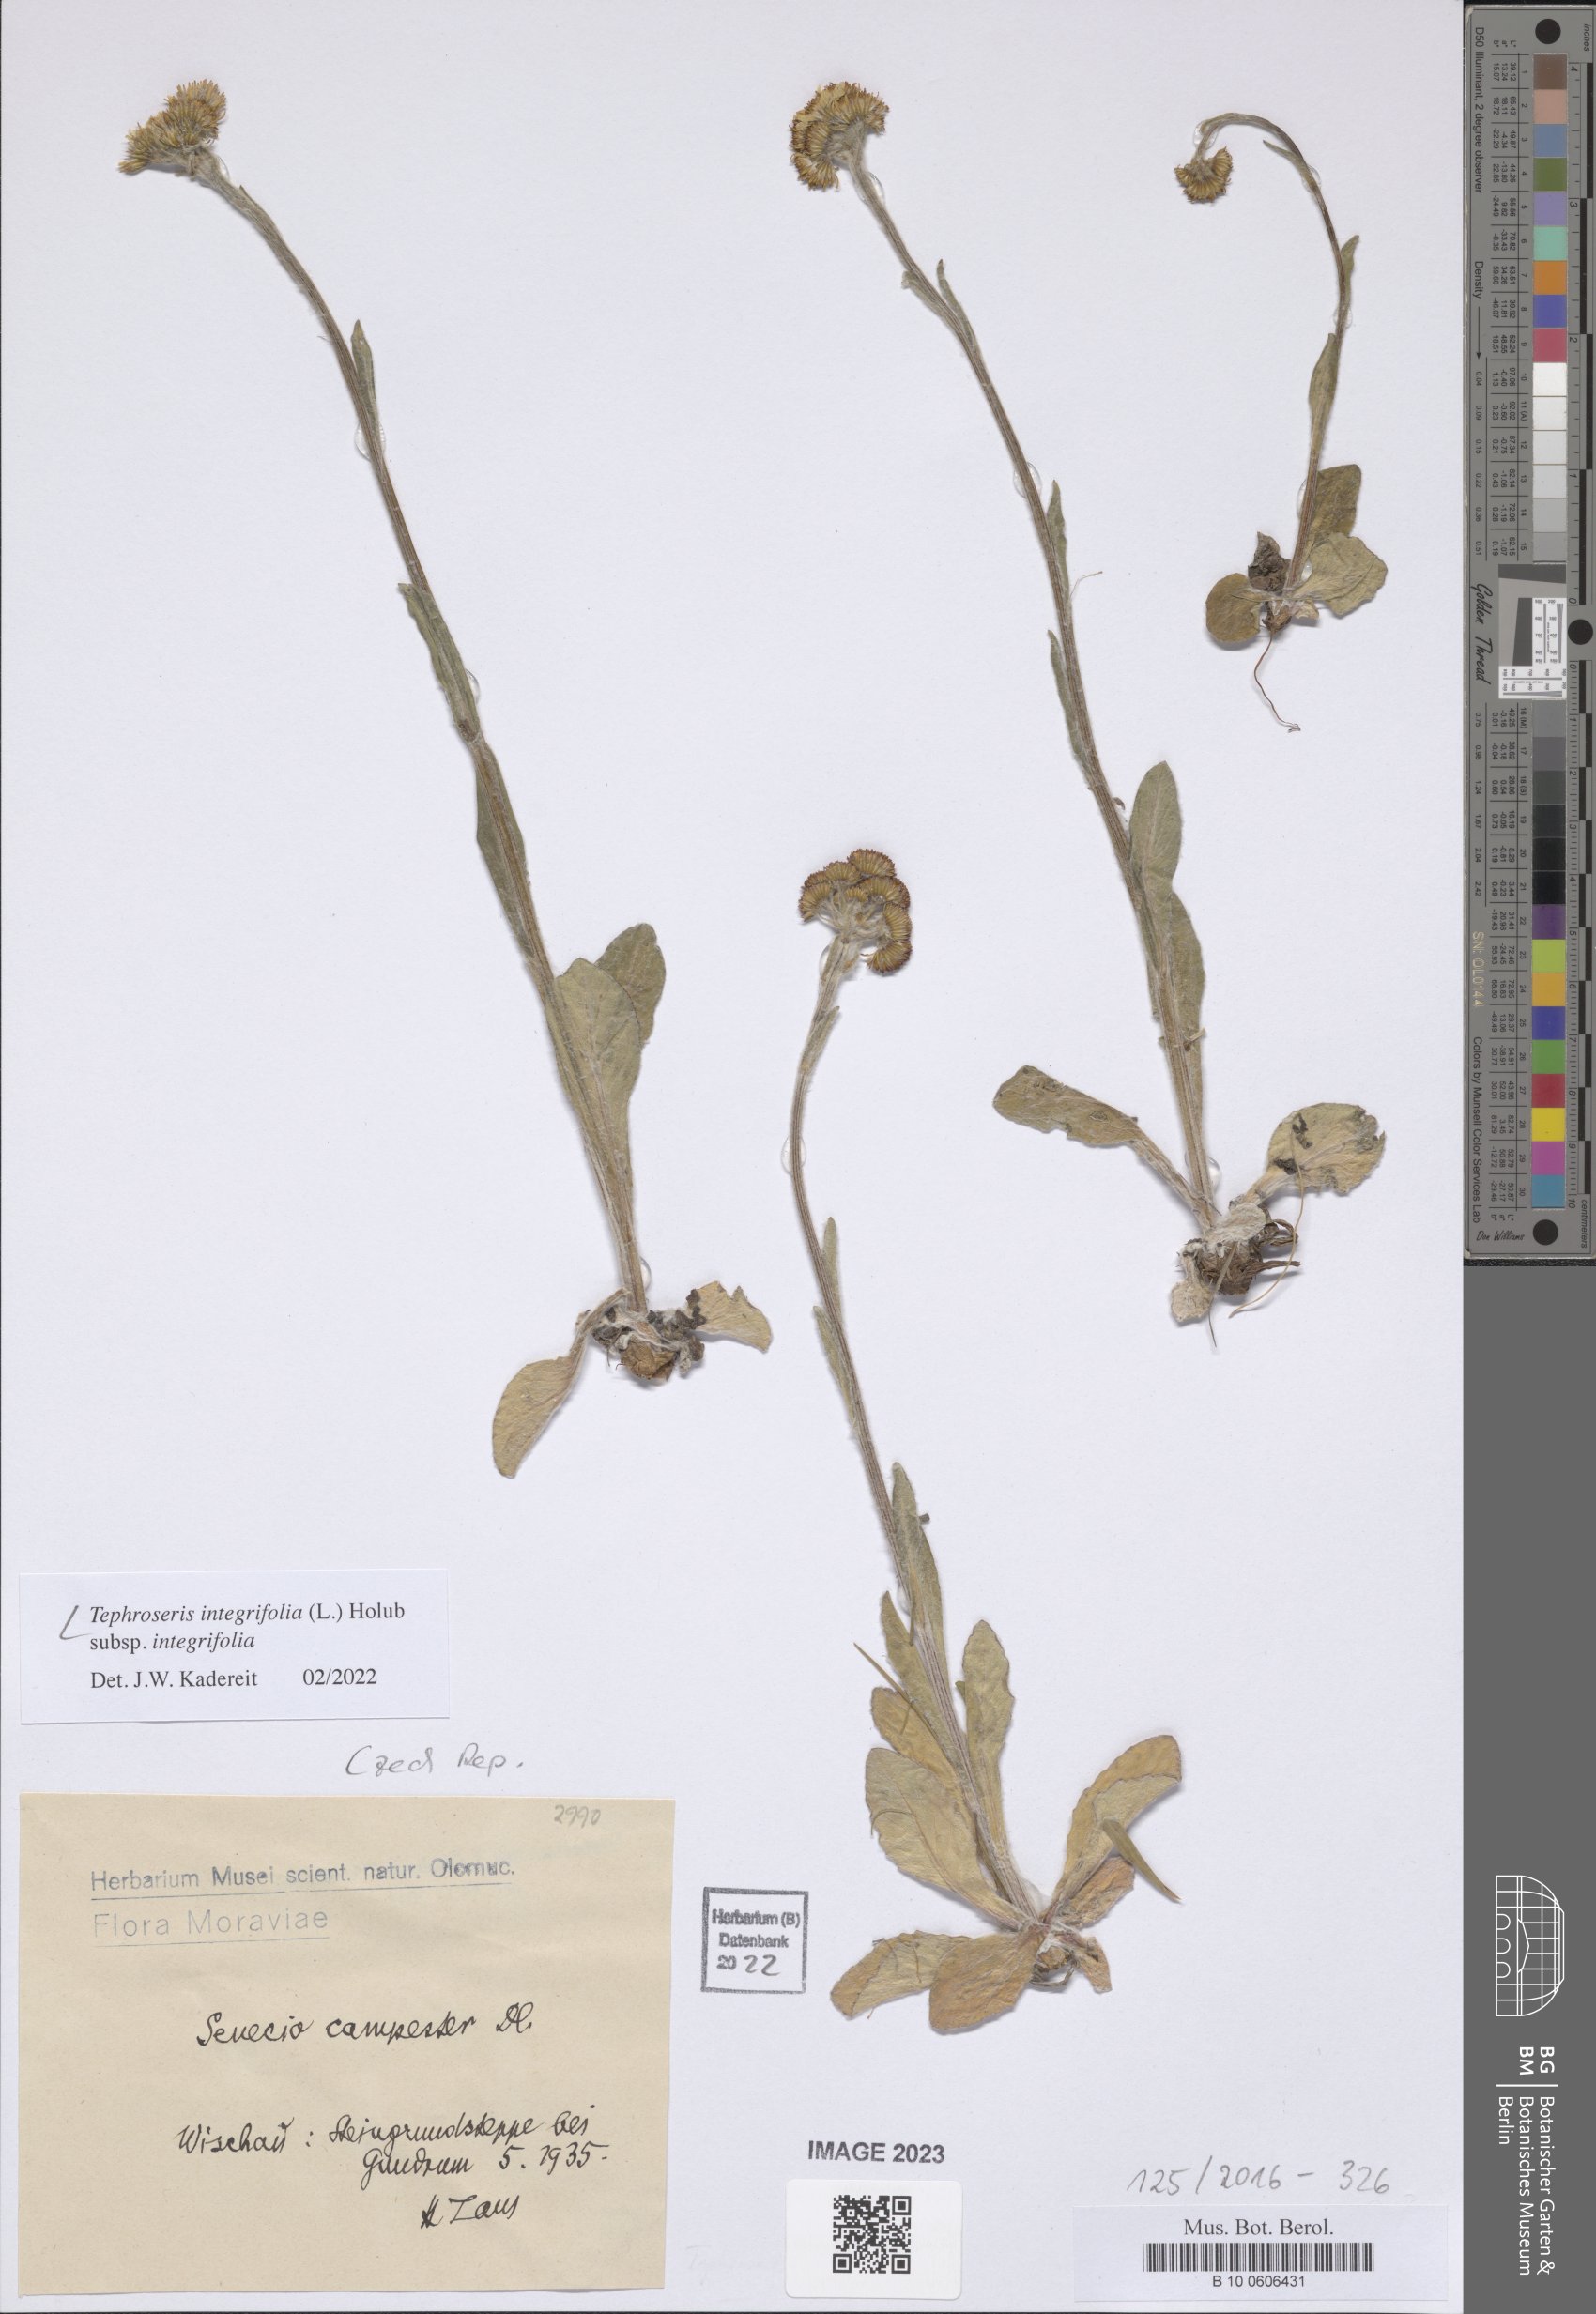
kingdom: Plantae
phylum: Tracheophyta
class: Magnoliopsida
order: Asterales
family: Asteraceae
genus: Tephroseris
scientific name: Tephroseris integrifolia
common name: Field fleawort
